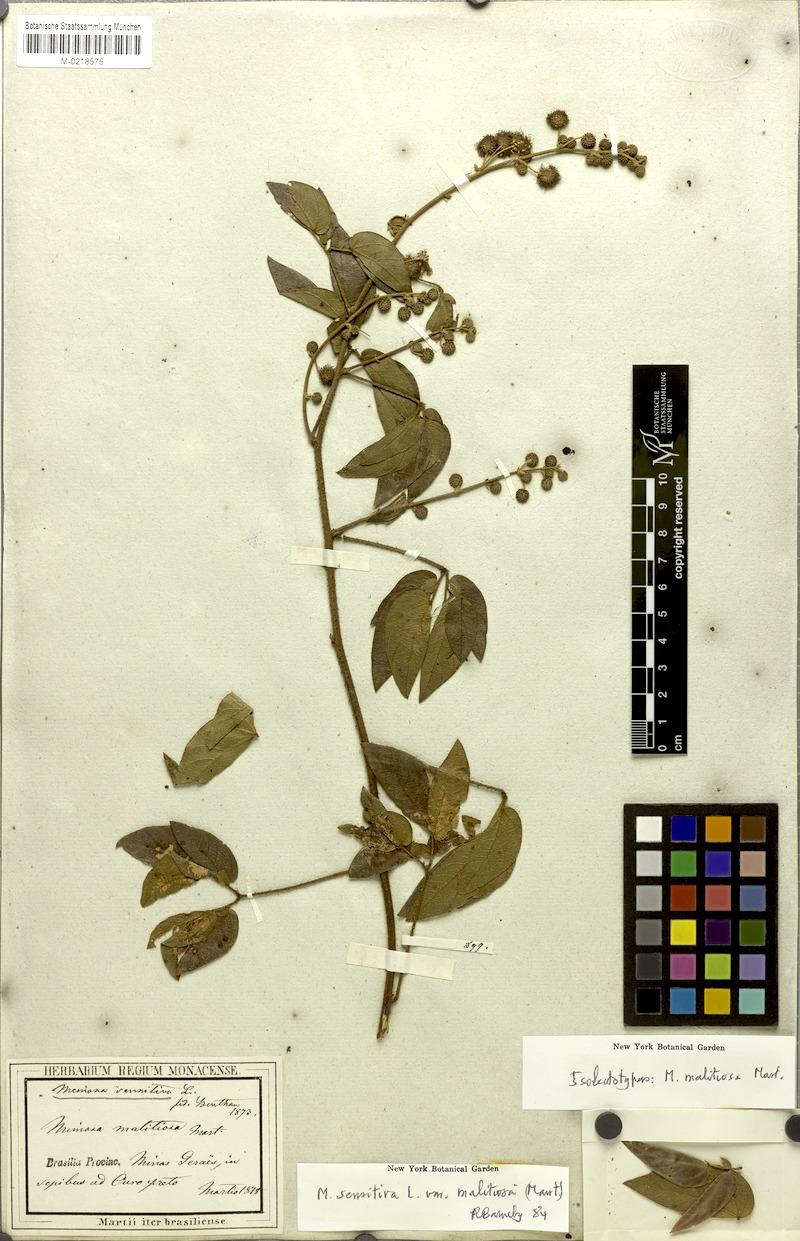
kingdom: Plantae
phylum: Tracheophyta
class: Magnoliopsida
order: Fabales
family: Fabaceae
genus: Mimosa
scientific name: Mimosa sensitiva
